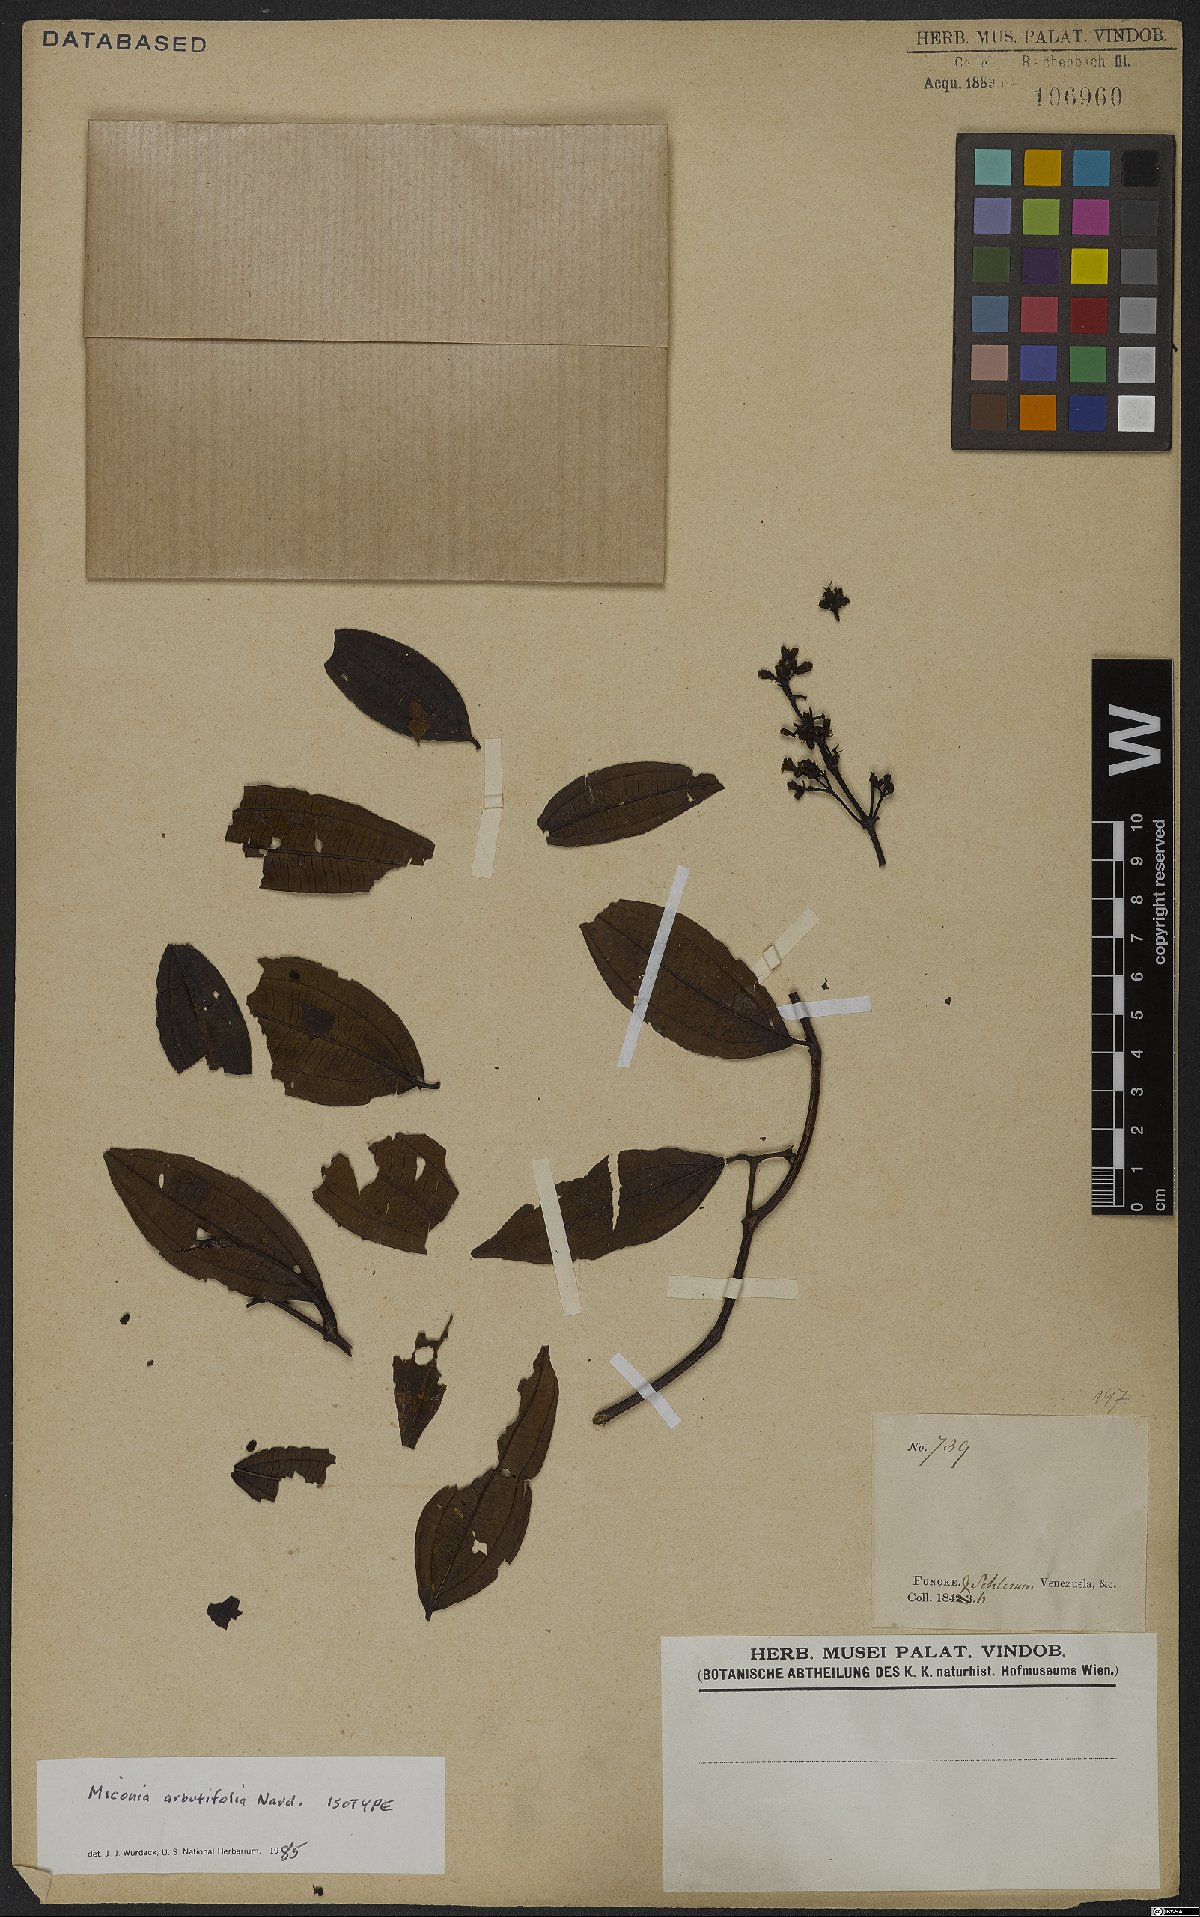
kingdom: Plantae
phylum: Tracheophyta
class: Magnoliopsida
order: Myrtales
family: Melastomataceae
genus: Miconia
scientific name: Miconia arbutifolia
